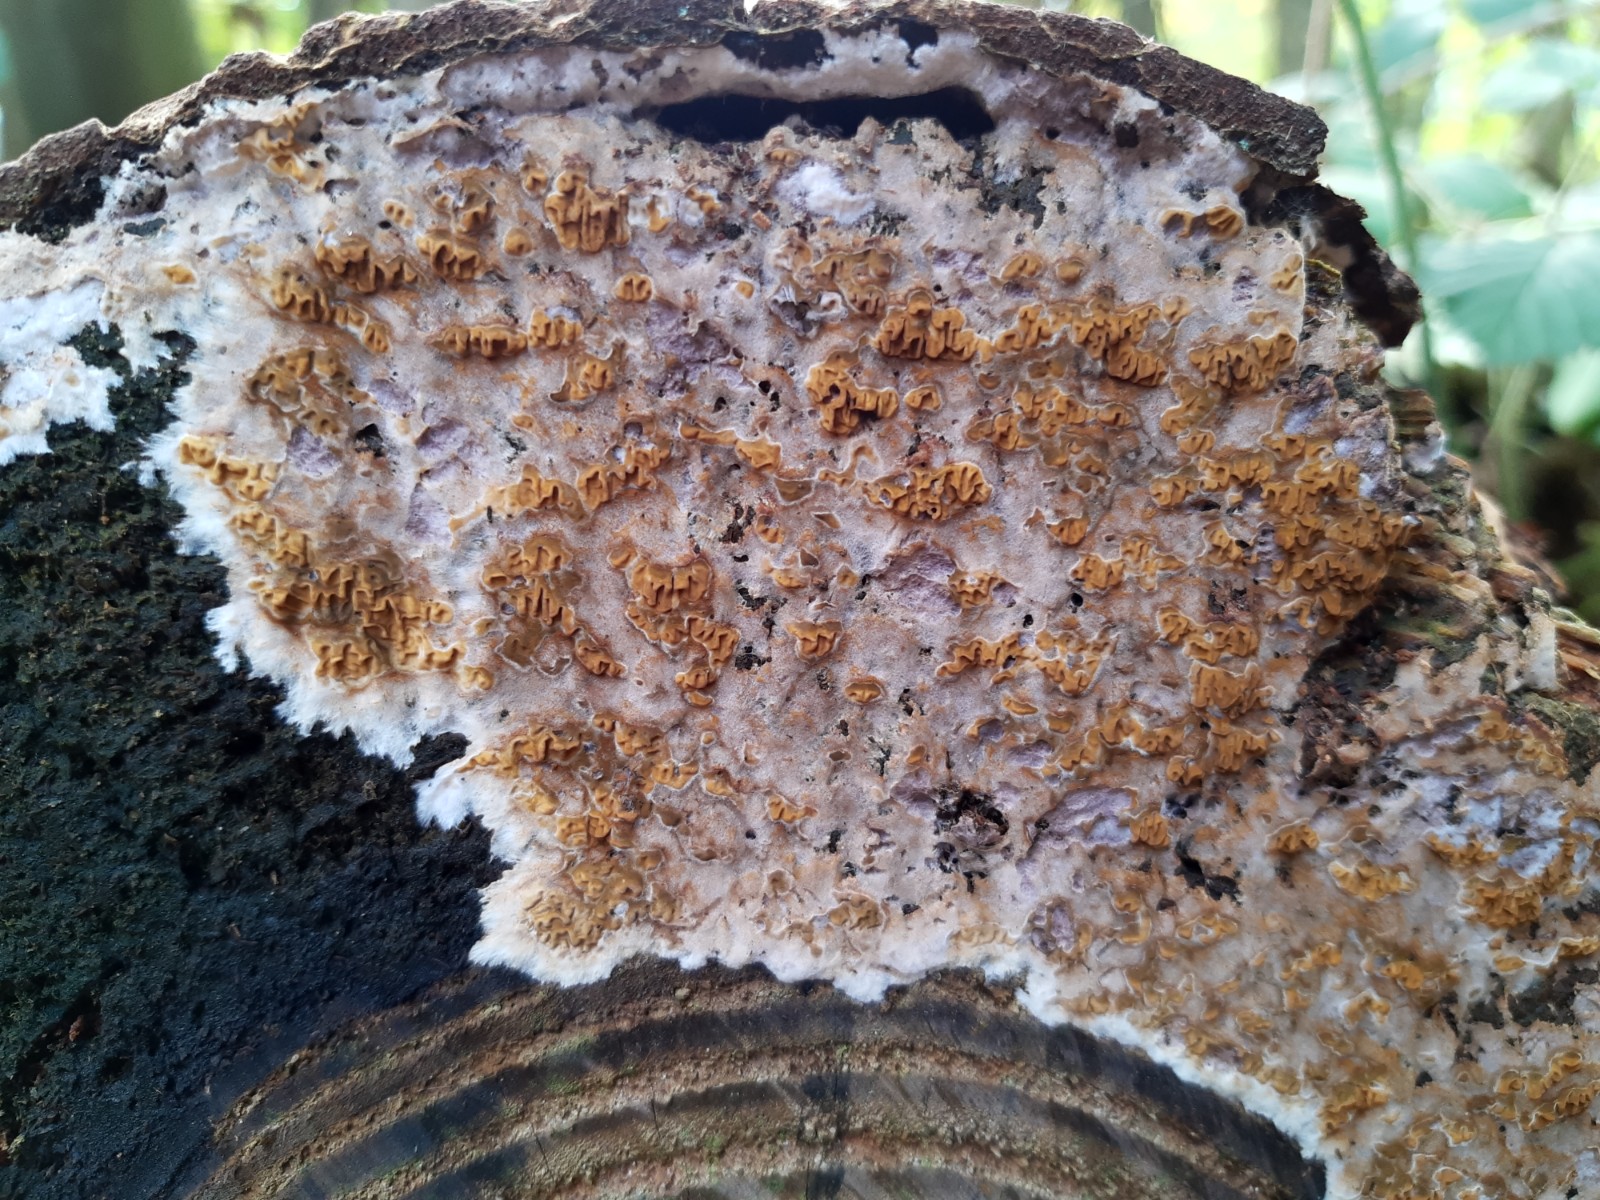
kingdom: Fungi
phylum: Basidiomycota
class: Agaricomycetes
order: Boletales
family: Serpulaceae
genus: Serpula
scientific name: Serpula himantioides
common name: tyndkødet hussvamp
